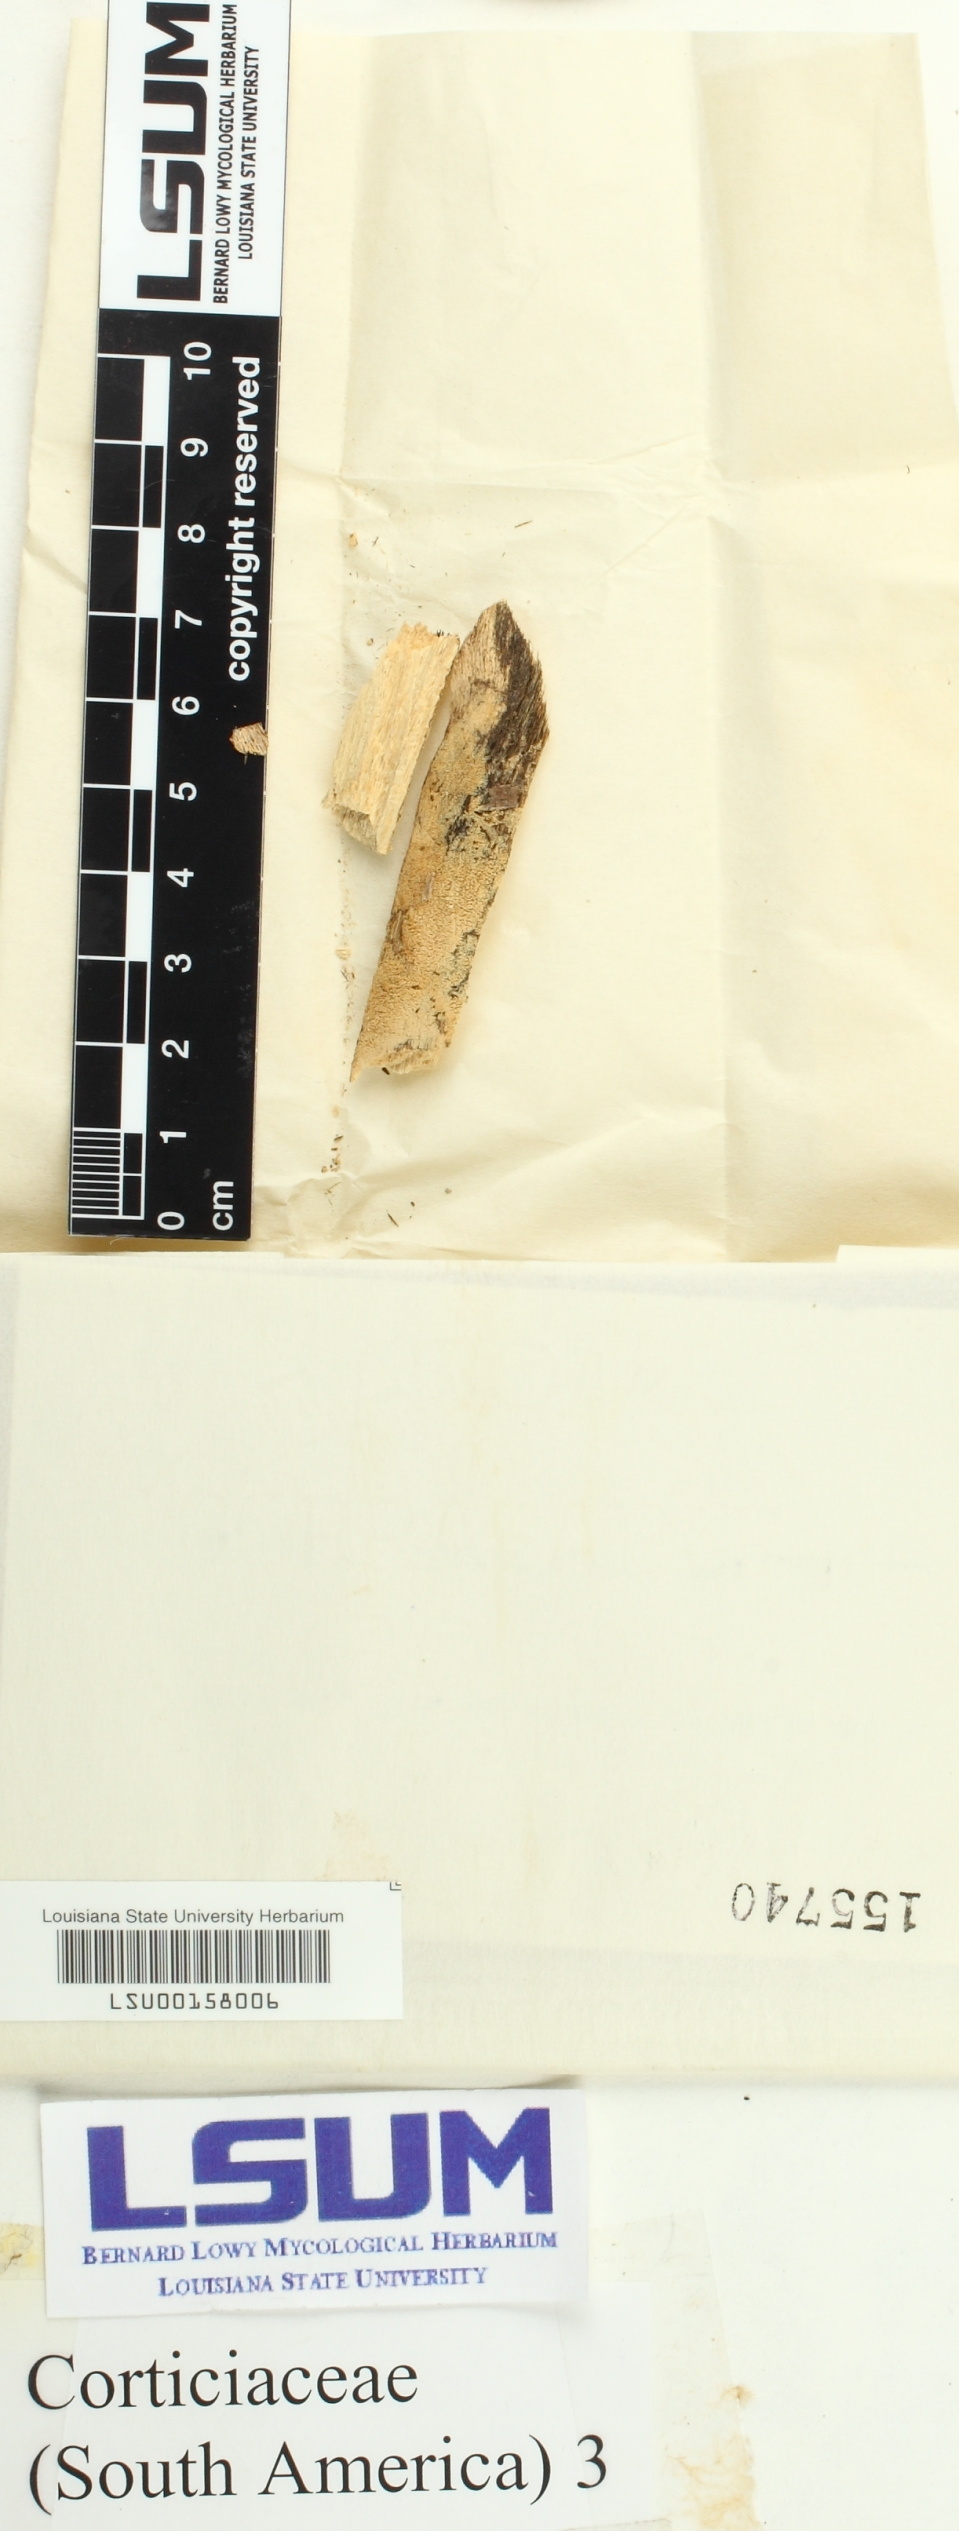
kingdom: Fungi
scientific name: Fungi
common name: Fungi
